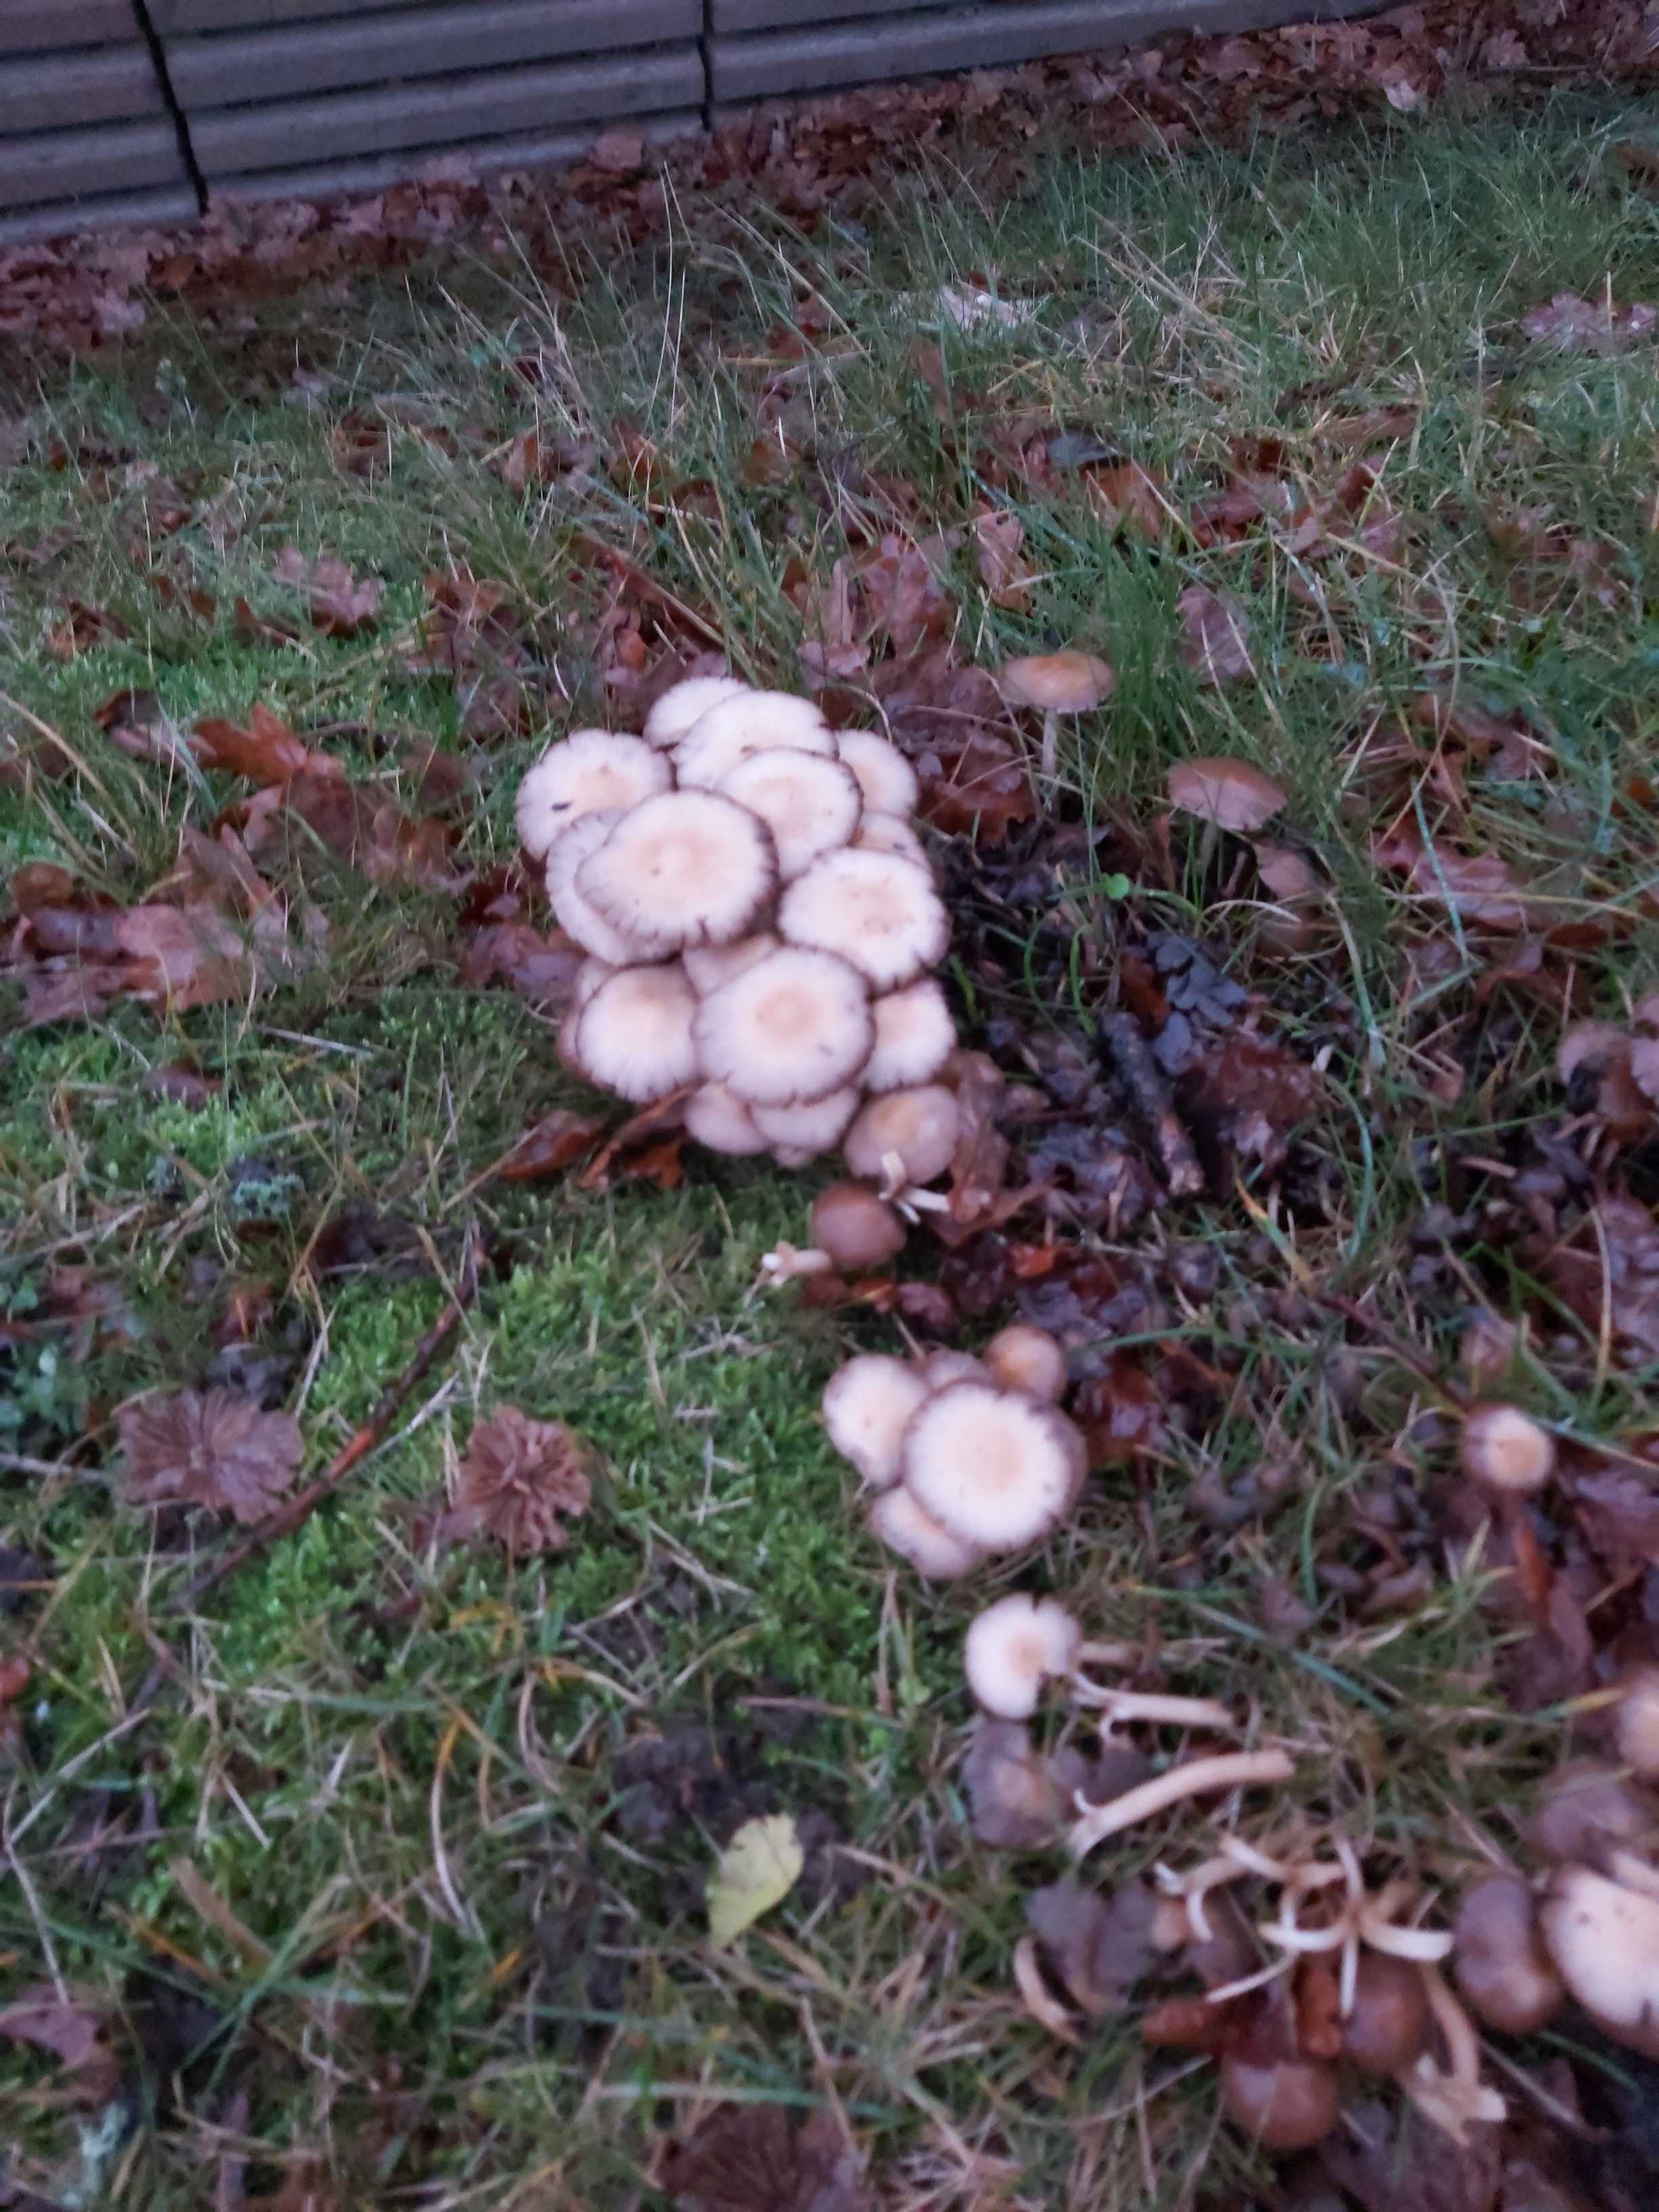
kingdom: Fungi
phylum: Basidiomycota
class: Agaricomycetes
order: Agaricales
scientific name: Agaricales
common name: champignonordenen
